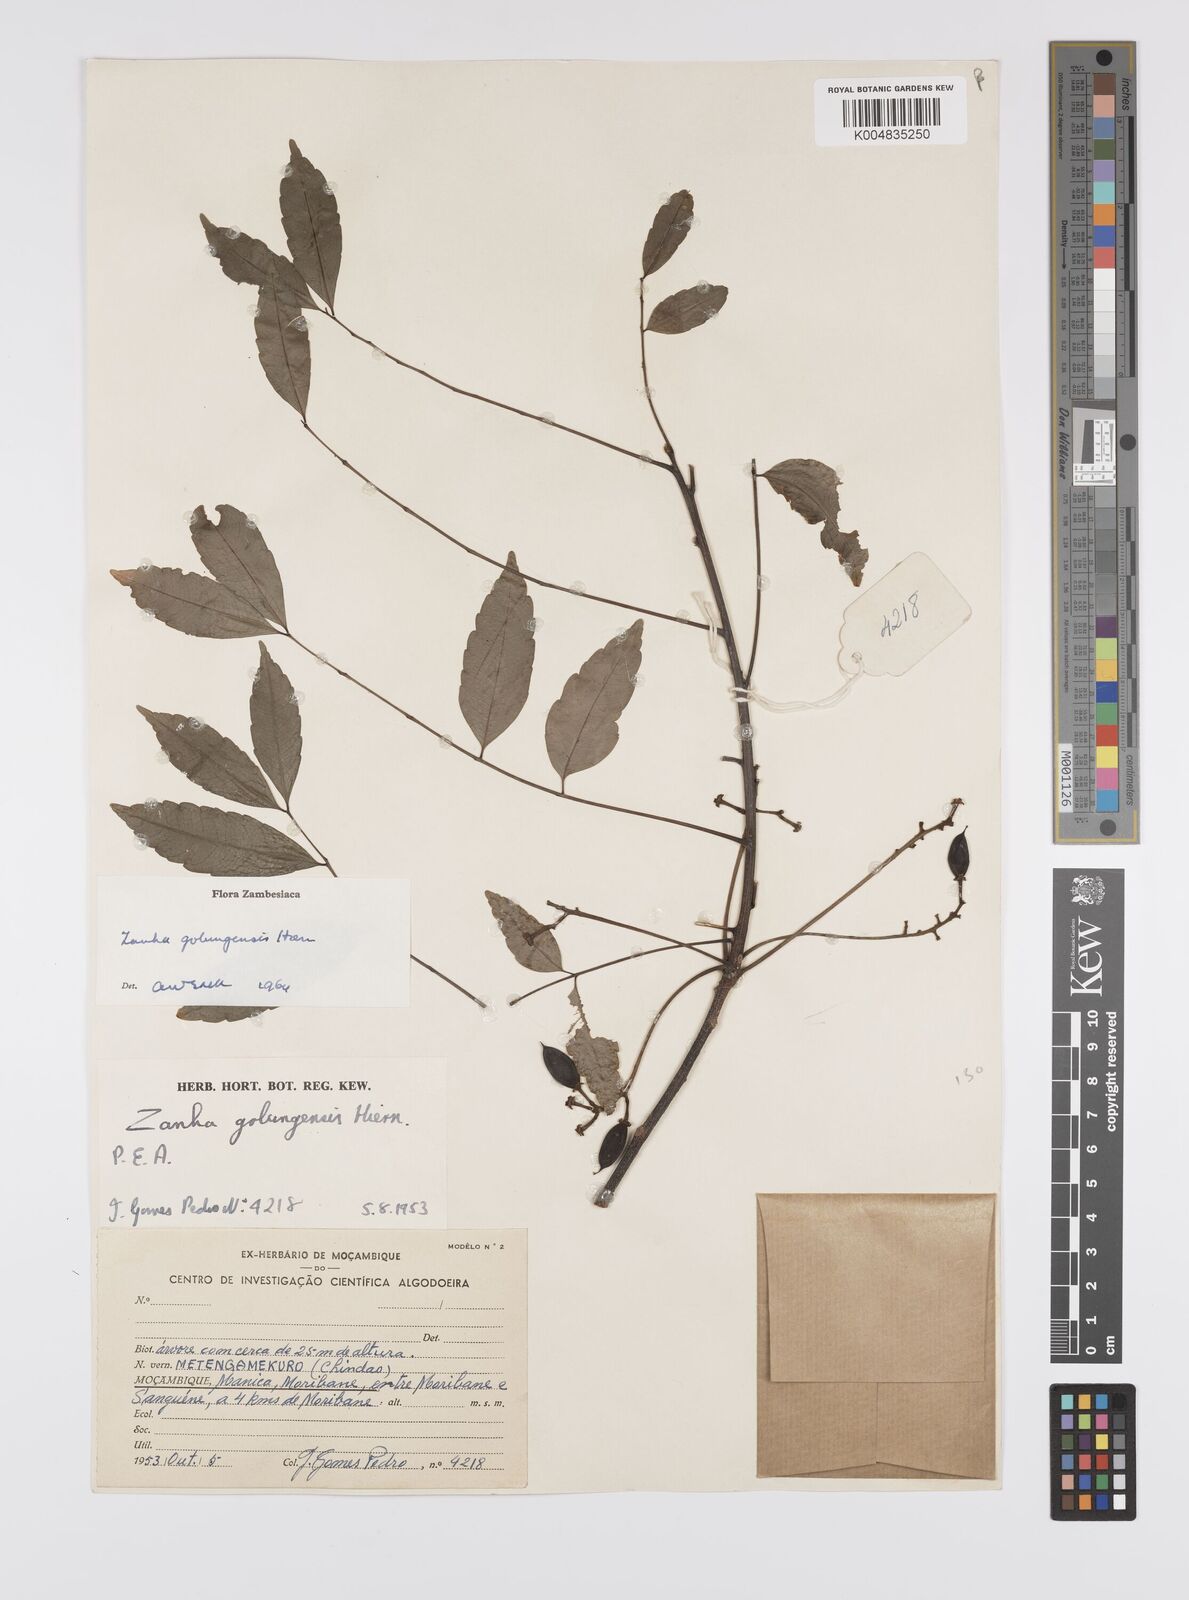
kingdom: Plantae
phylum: Tracheophyta
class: Magnoliopsida
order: Sapindales
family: Sapindaceae
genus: Zanha
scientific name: Zanha golungensis
